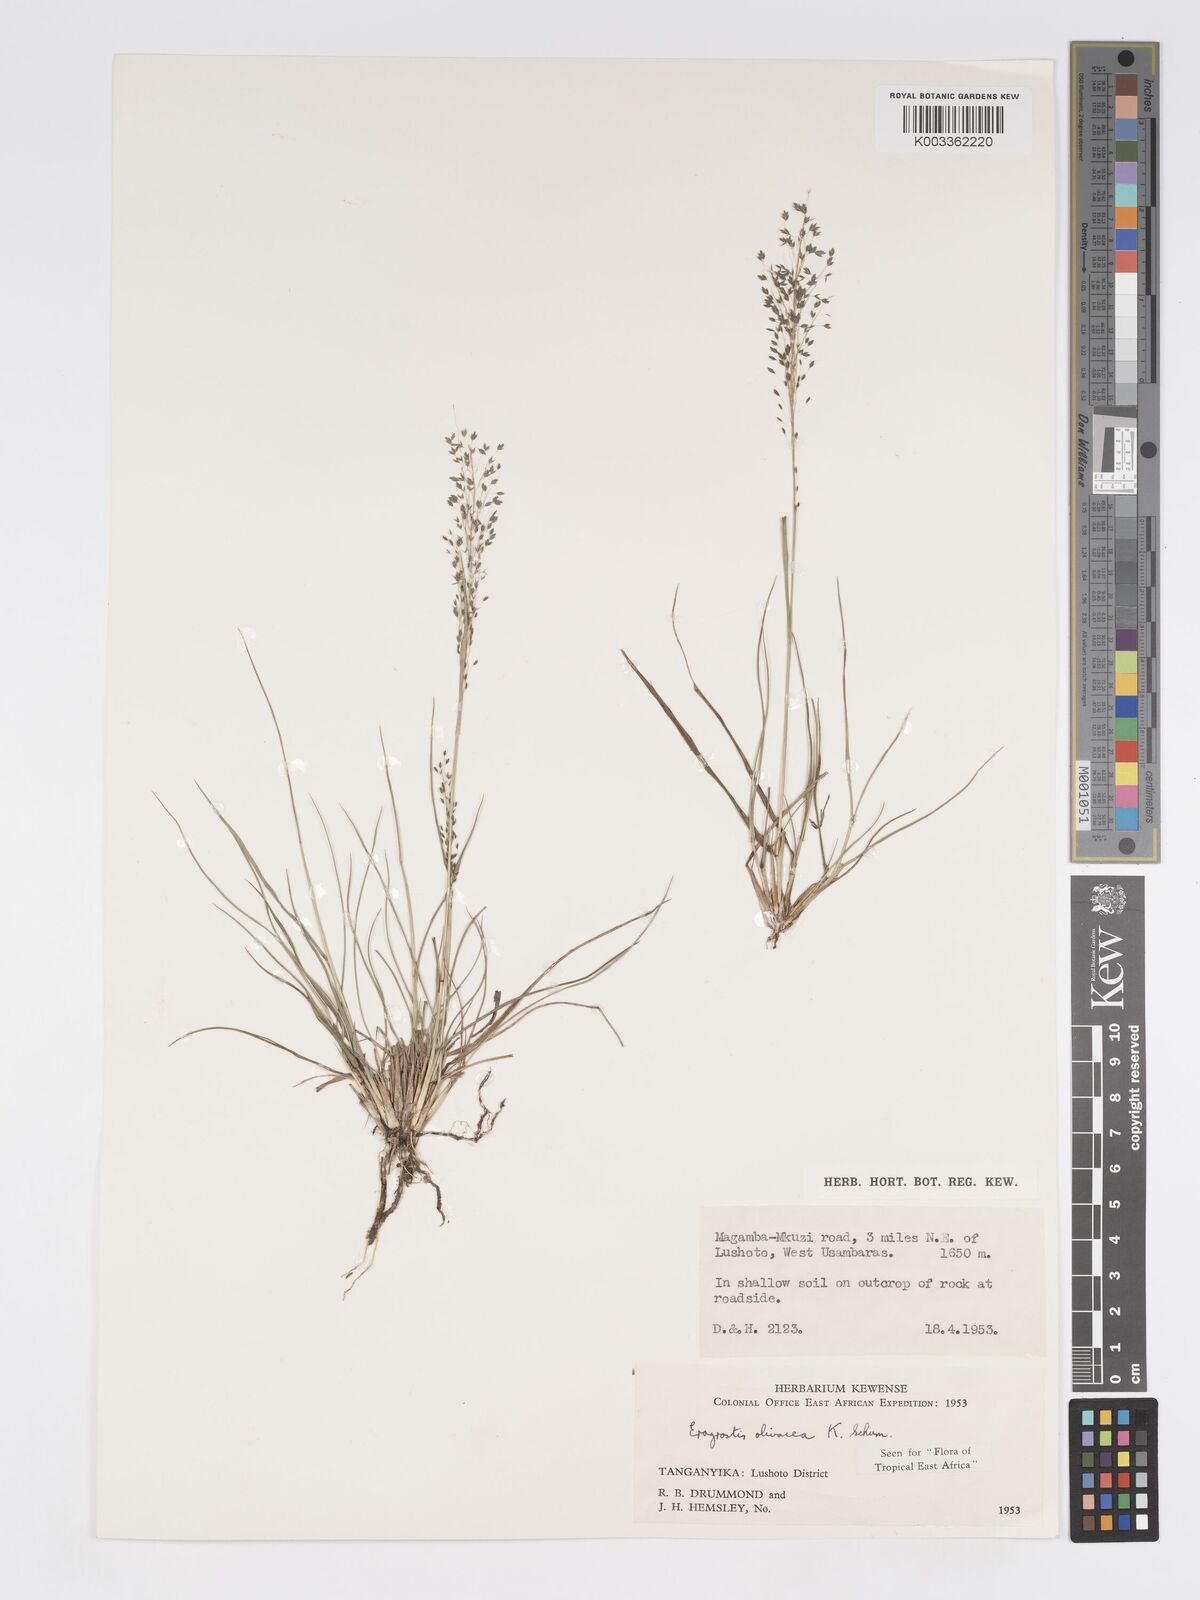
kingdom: Plantae
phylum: Tracheophyta
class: Liliopsida
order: Poales
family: Poaceae
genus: Eragrostis
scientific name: Eragrostis olivacea
